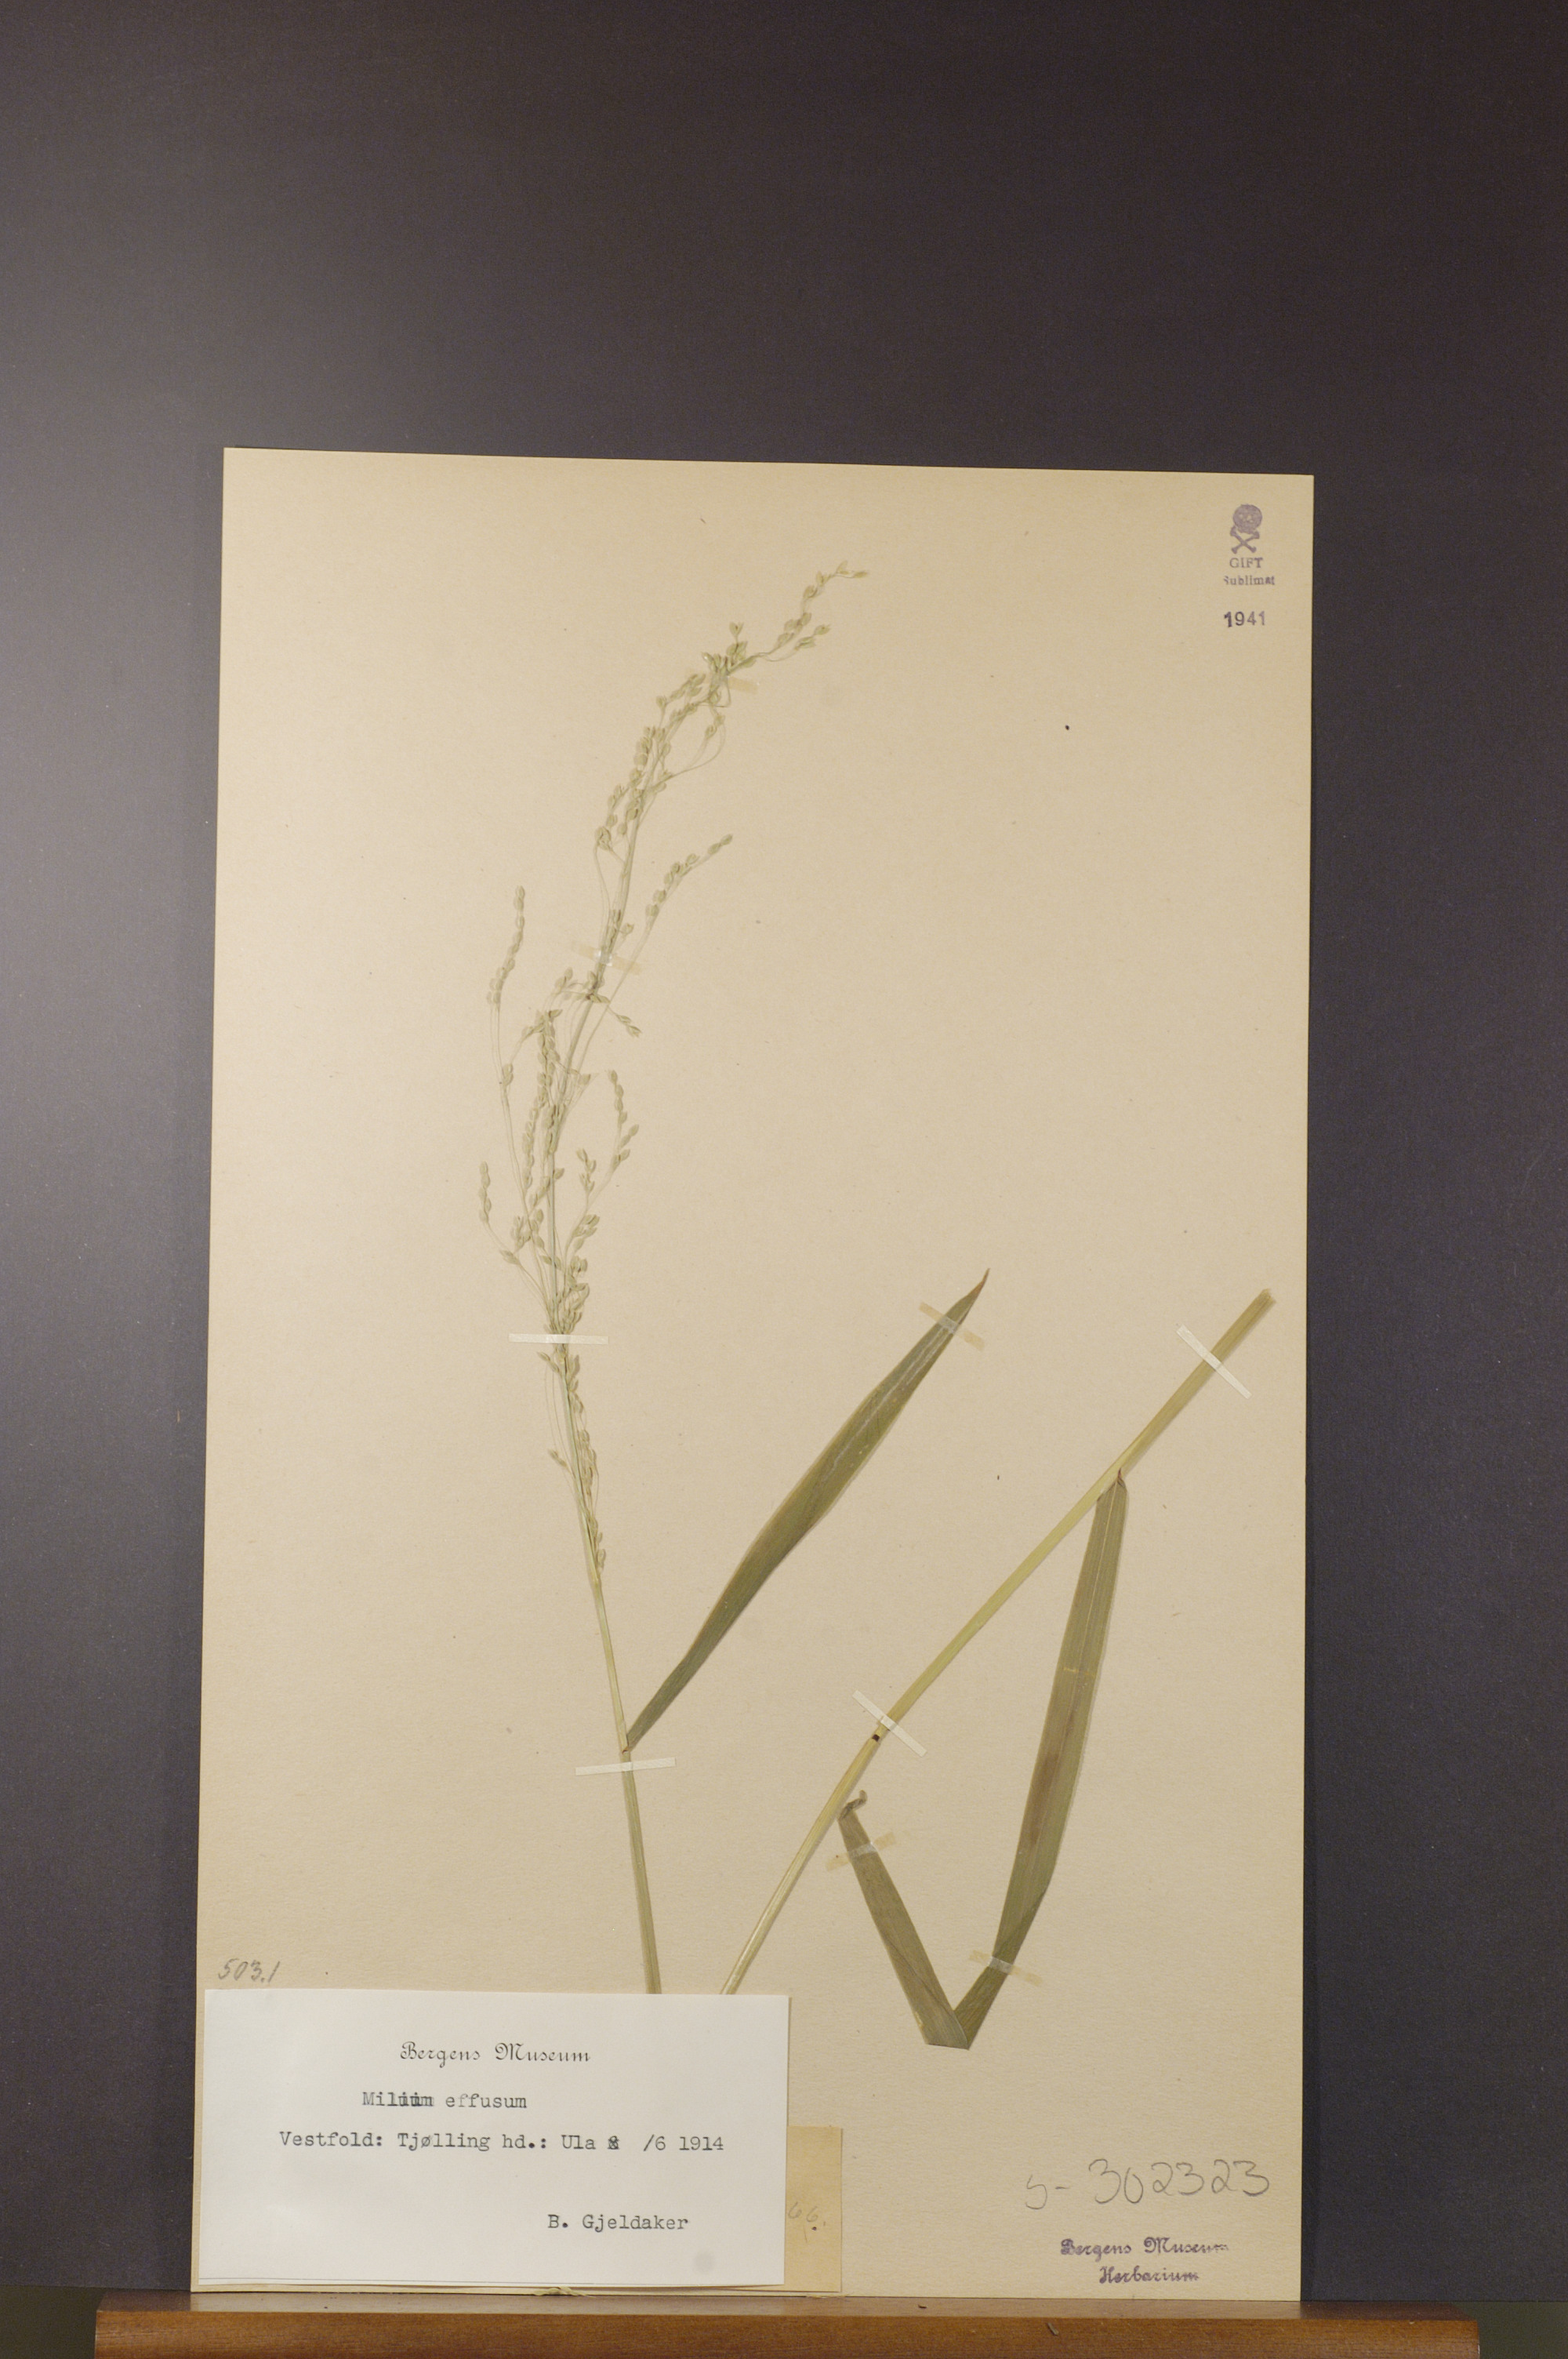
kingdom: Plantae
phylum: Tracheophyta
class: Liliopsida
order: Poales
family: Poaceae
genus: Milium
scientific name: Milium effusum
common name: Wood millet
